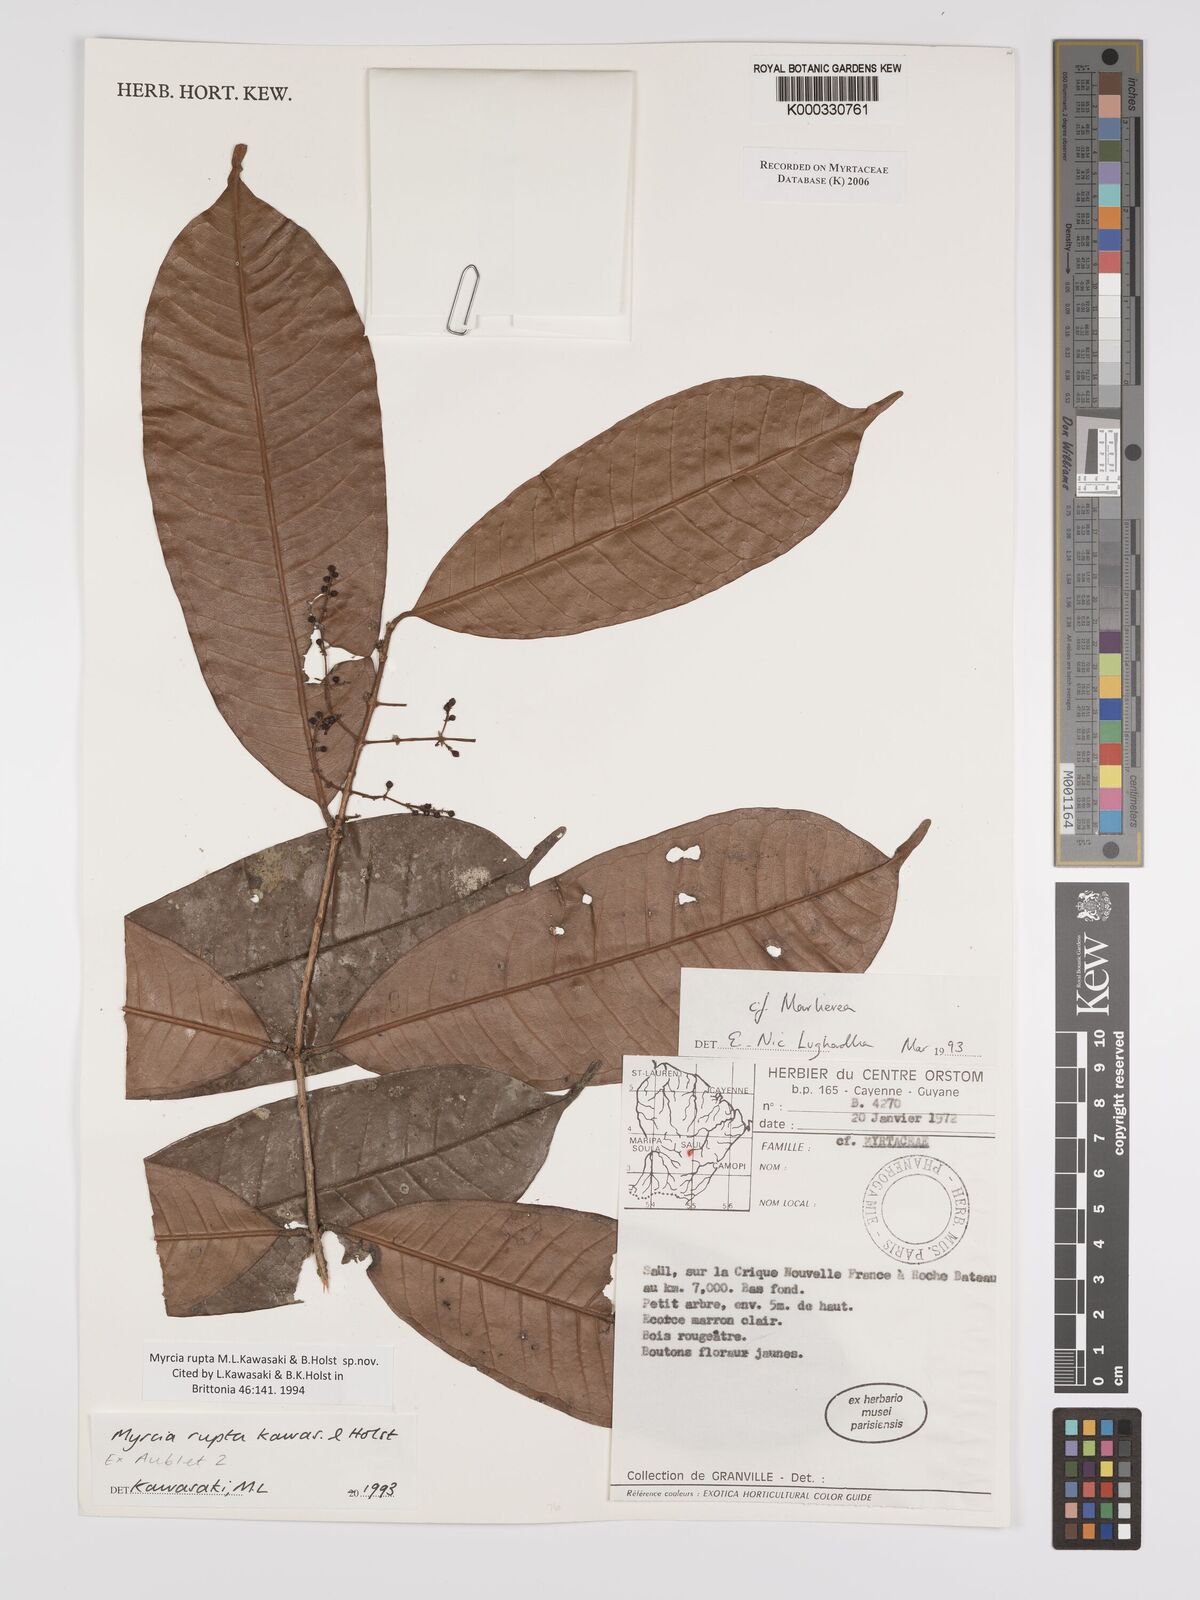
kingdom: Plantae
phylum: Tracheophyta
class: Magnoliopsida
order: Myrtales
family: Myrtaceae
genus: Myrcia
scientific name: Myrcia rupta
